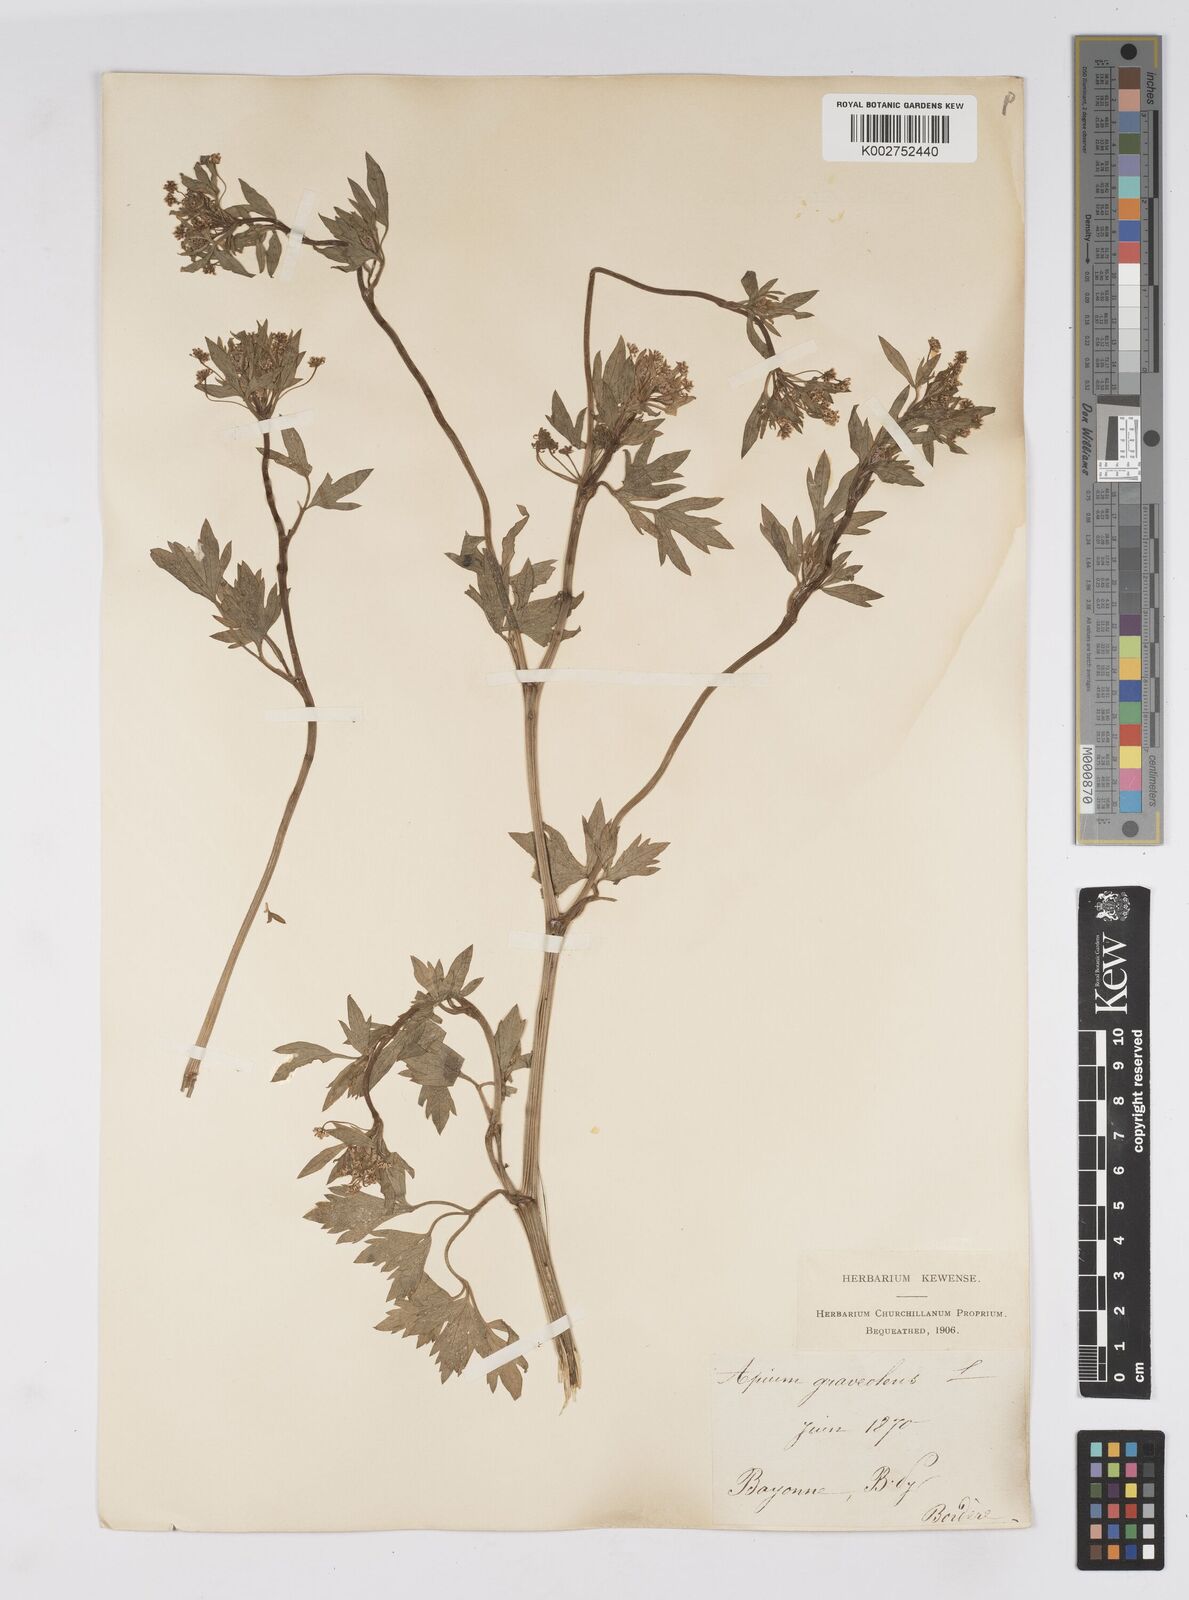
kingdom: Plantae
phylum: Tracheophyta
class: Magnoliopsida
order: Apiales
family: Apiaceae
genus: Apium
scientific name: Apium graveolens
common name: Wild celery
